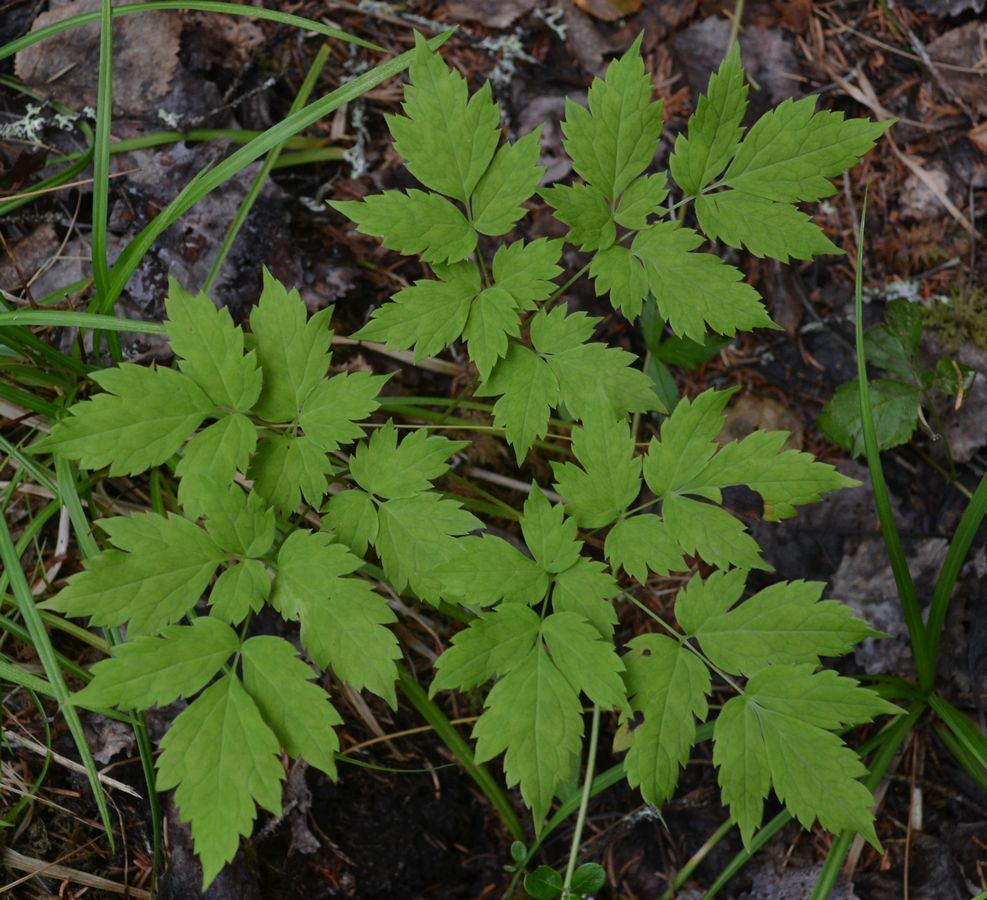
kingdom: Plantae
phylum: Tracheophyta
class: Magnoliopsida
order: Ranunculales
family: Ranunculaceae
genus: Actaea
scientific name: Actaea erythrocarpa
